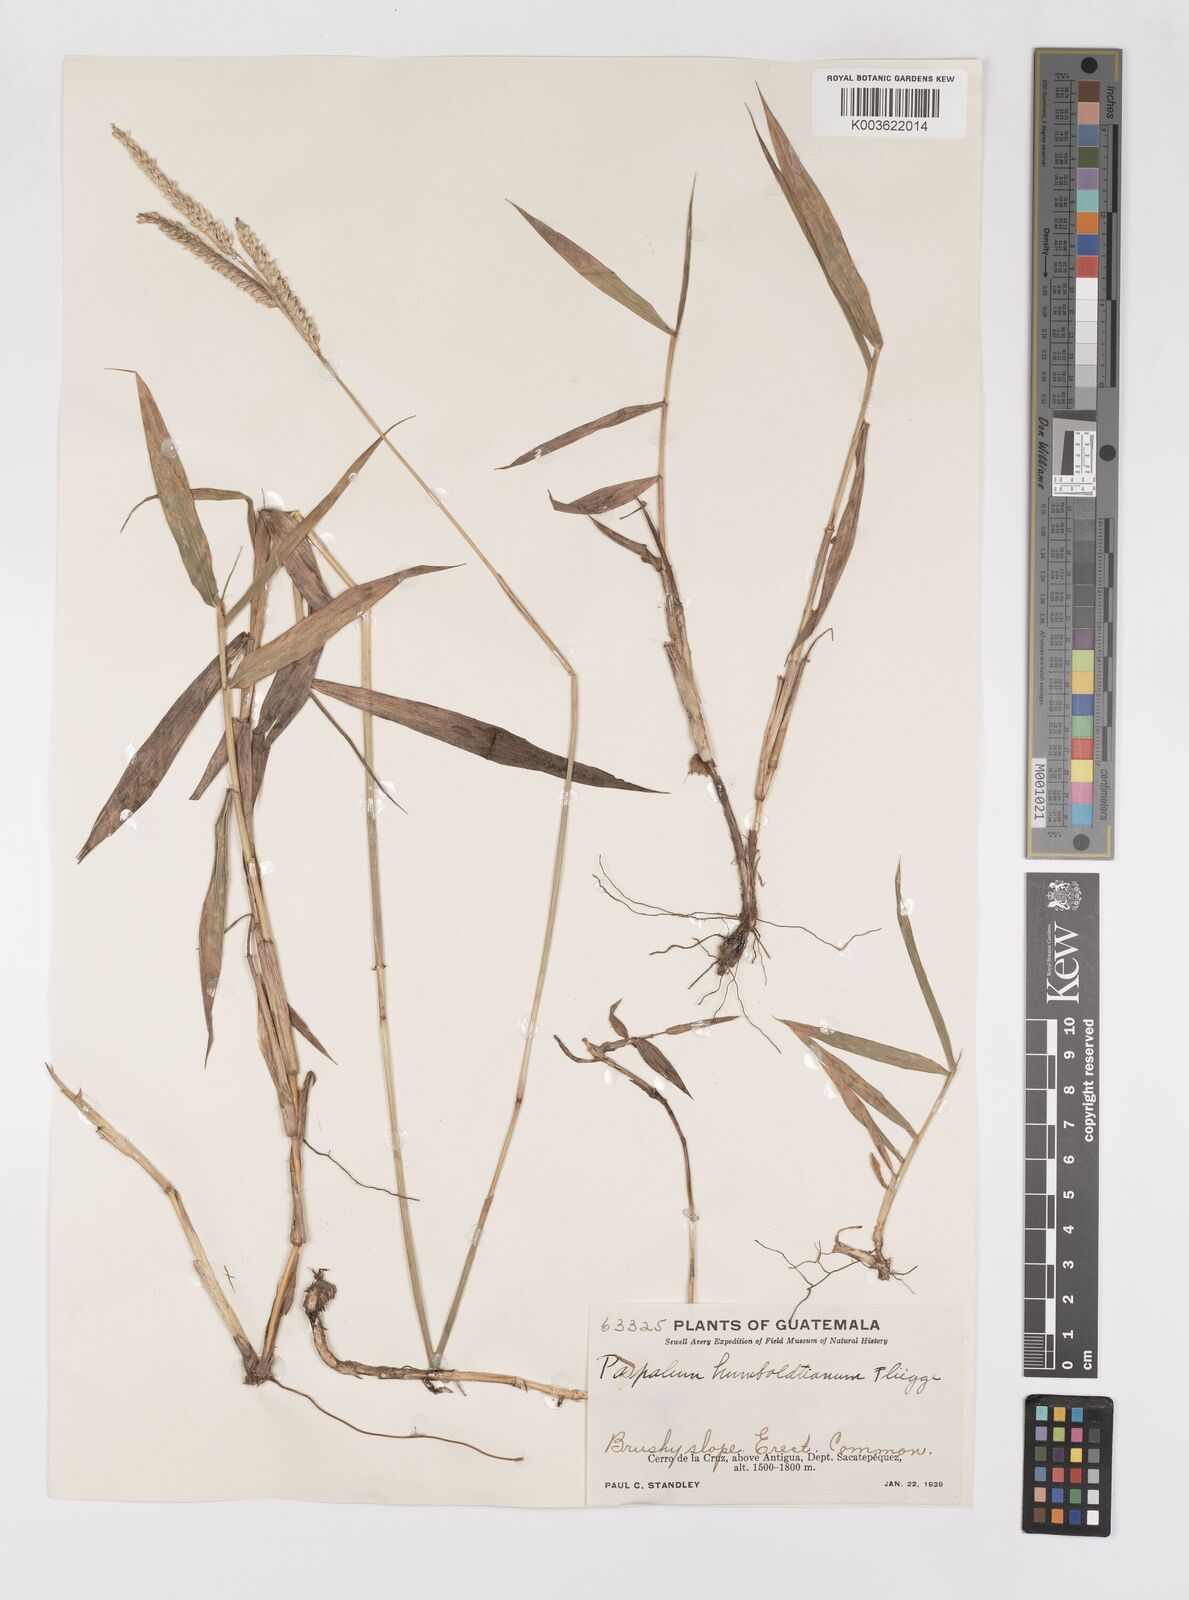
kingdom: Plantae
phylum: Tracheophyta
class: Liliopsida
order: Poales
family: Poaceae
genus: Paspalum
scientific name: Paspalum humboldtianum
